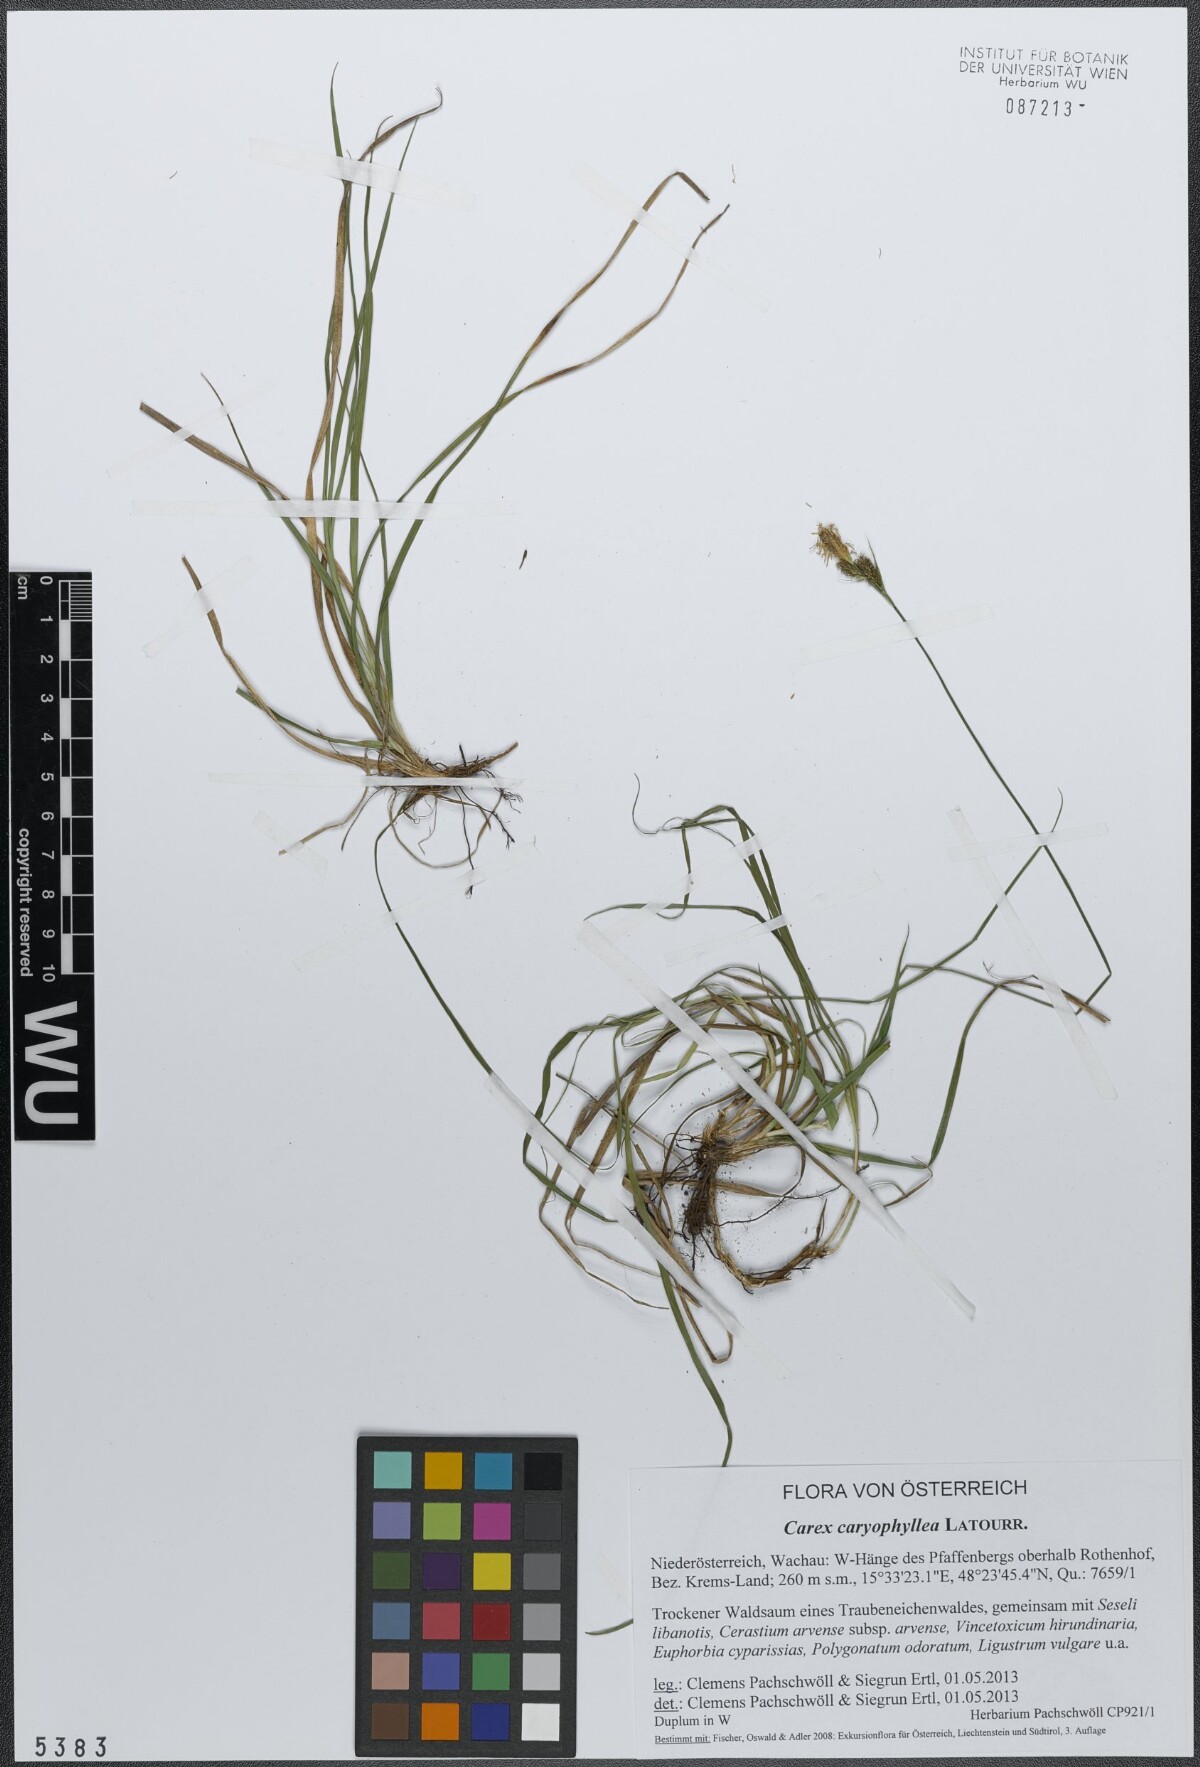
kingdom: Plantae
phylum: Tracheophyta
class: Liliopsida
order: Poales
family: Cyperaceae
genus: Carex
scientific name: Carex caryophyllea
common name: Spring sedge
